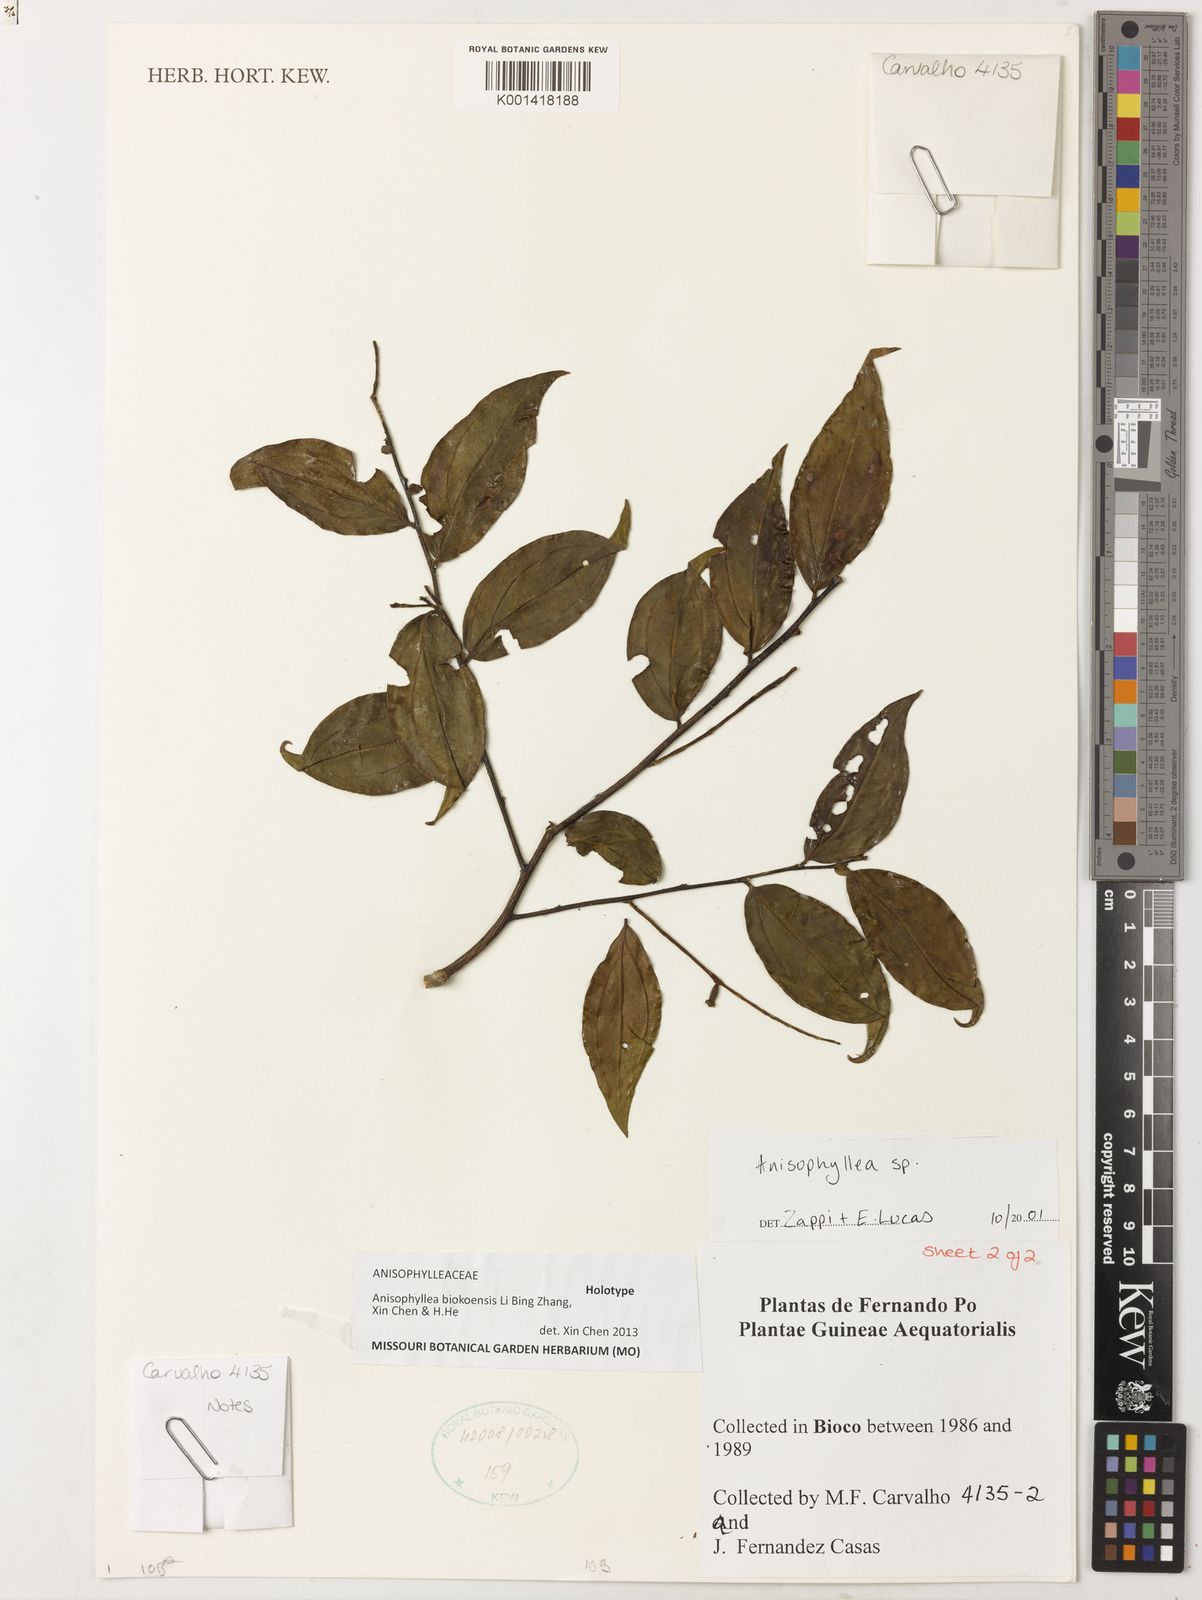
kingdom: Plantae
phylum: Tracheophyta
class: Magnoliopsida
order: Cucurbitales
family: Anisophylleaceae
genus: Anisophyllea
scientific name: Anisophyllea
